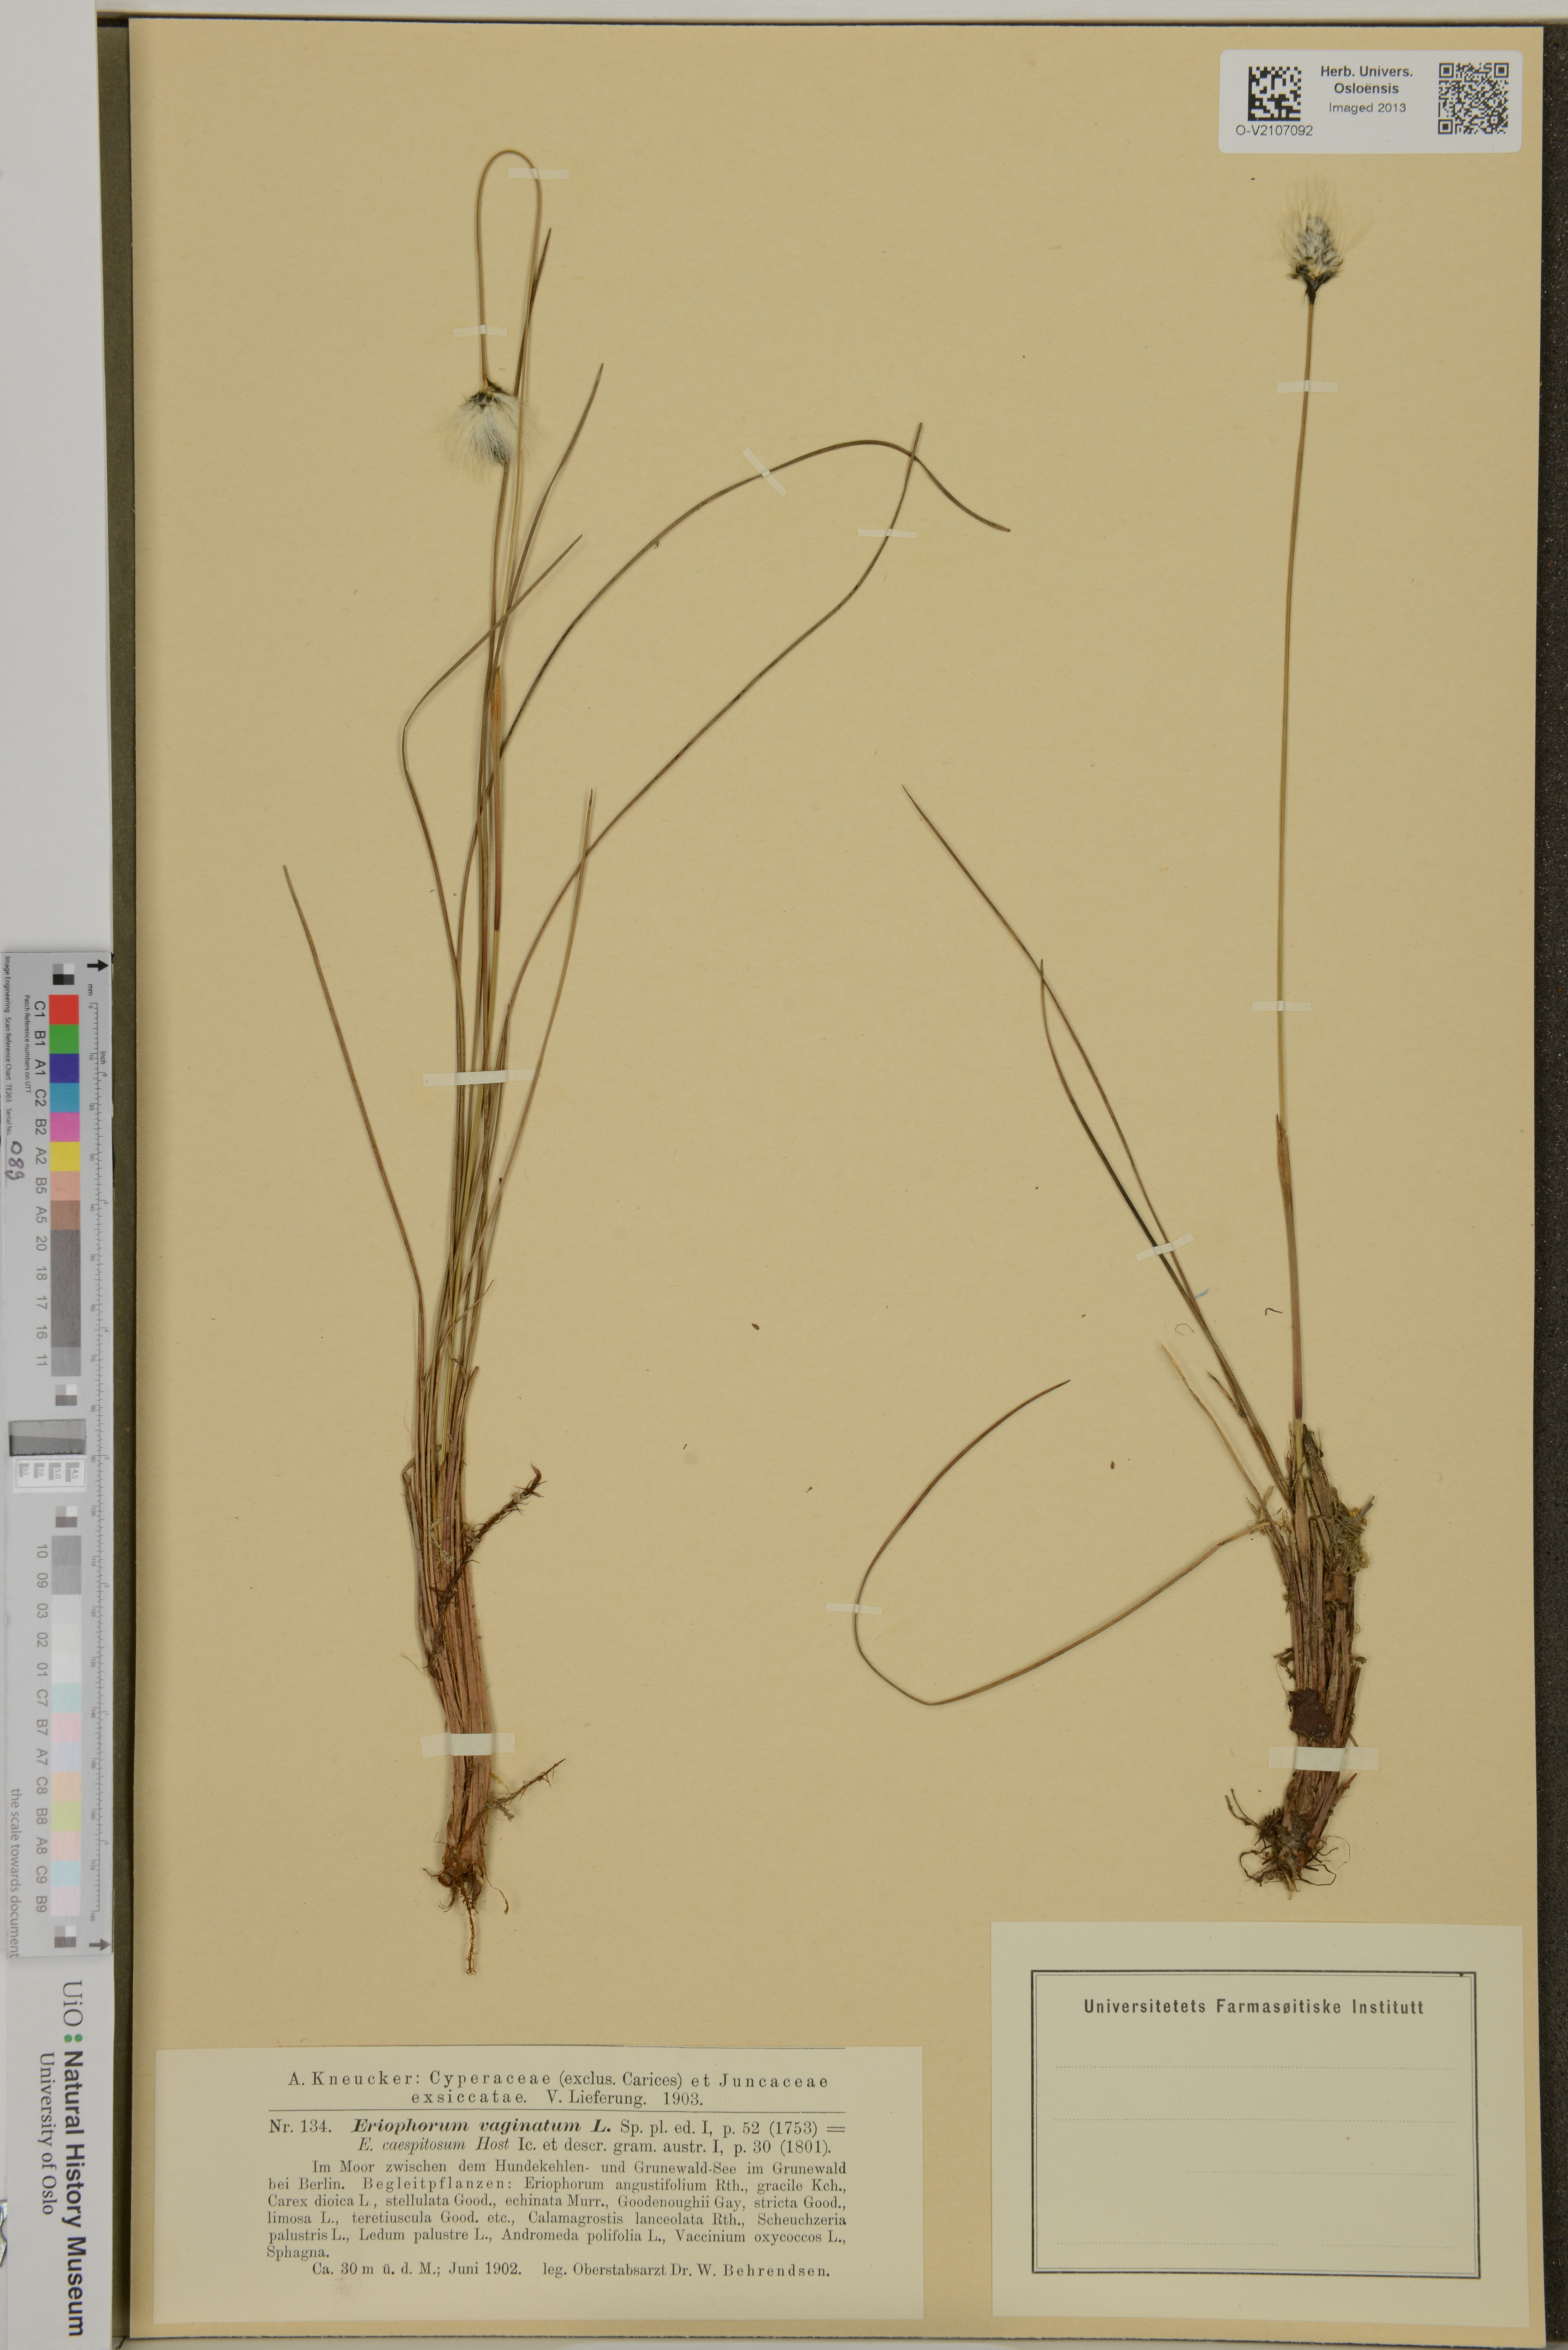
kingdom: Plantae
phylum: Tracheophyta
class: Liliopsida
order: Poales
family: Cyperaceae
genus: Eriophorum
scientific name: Eriophorum vaginatum
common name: Hare's-tail cottongrass
